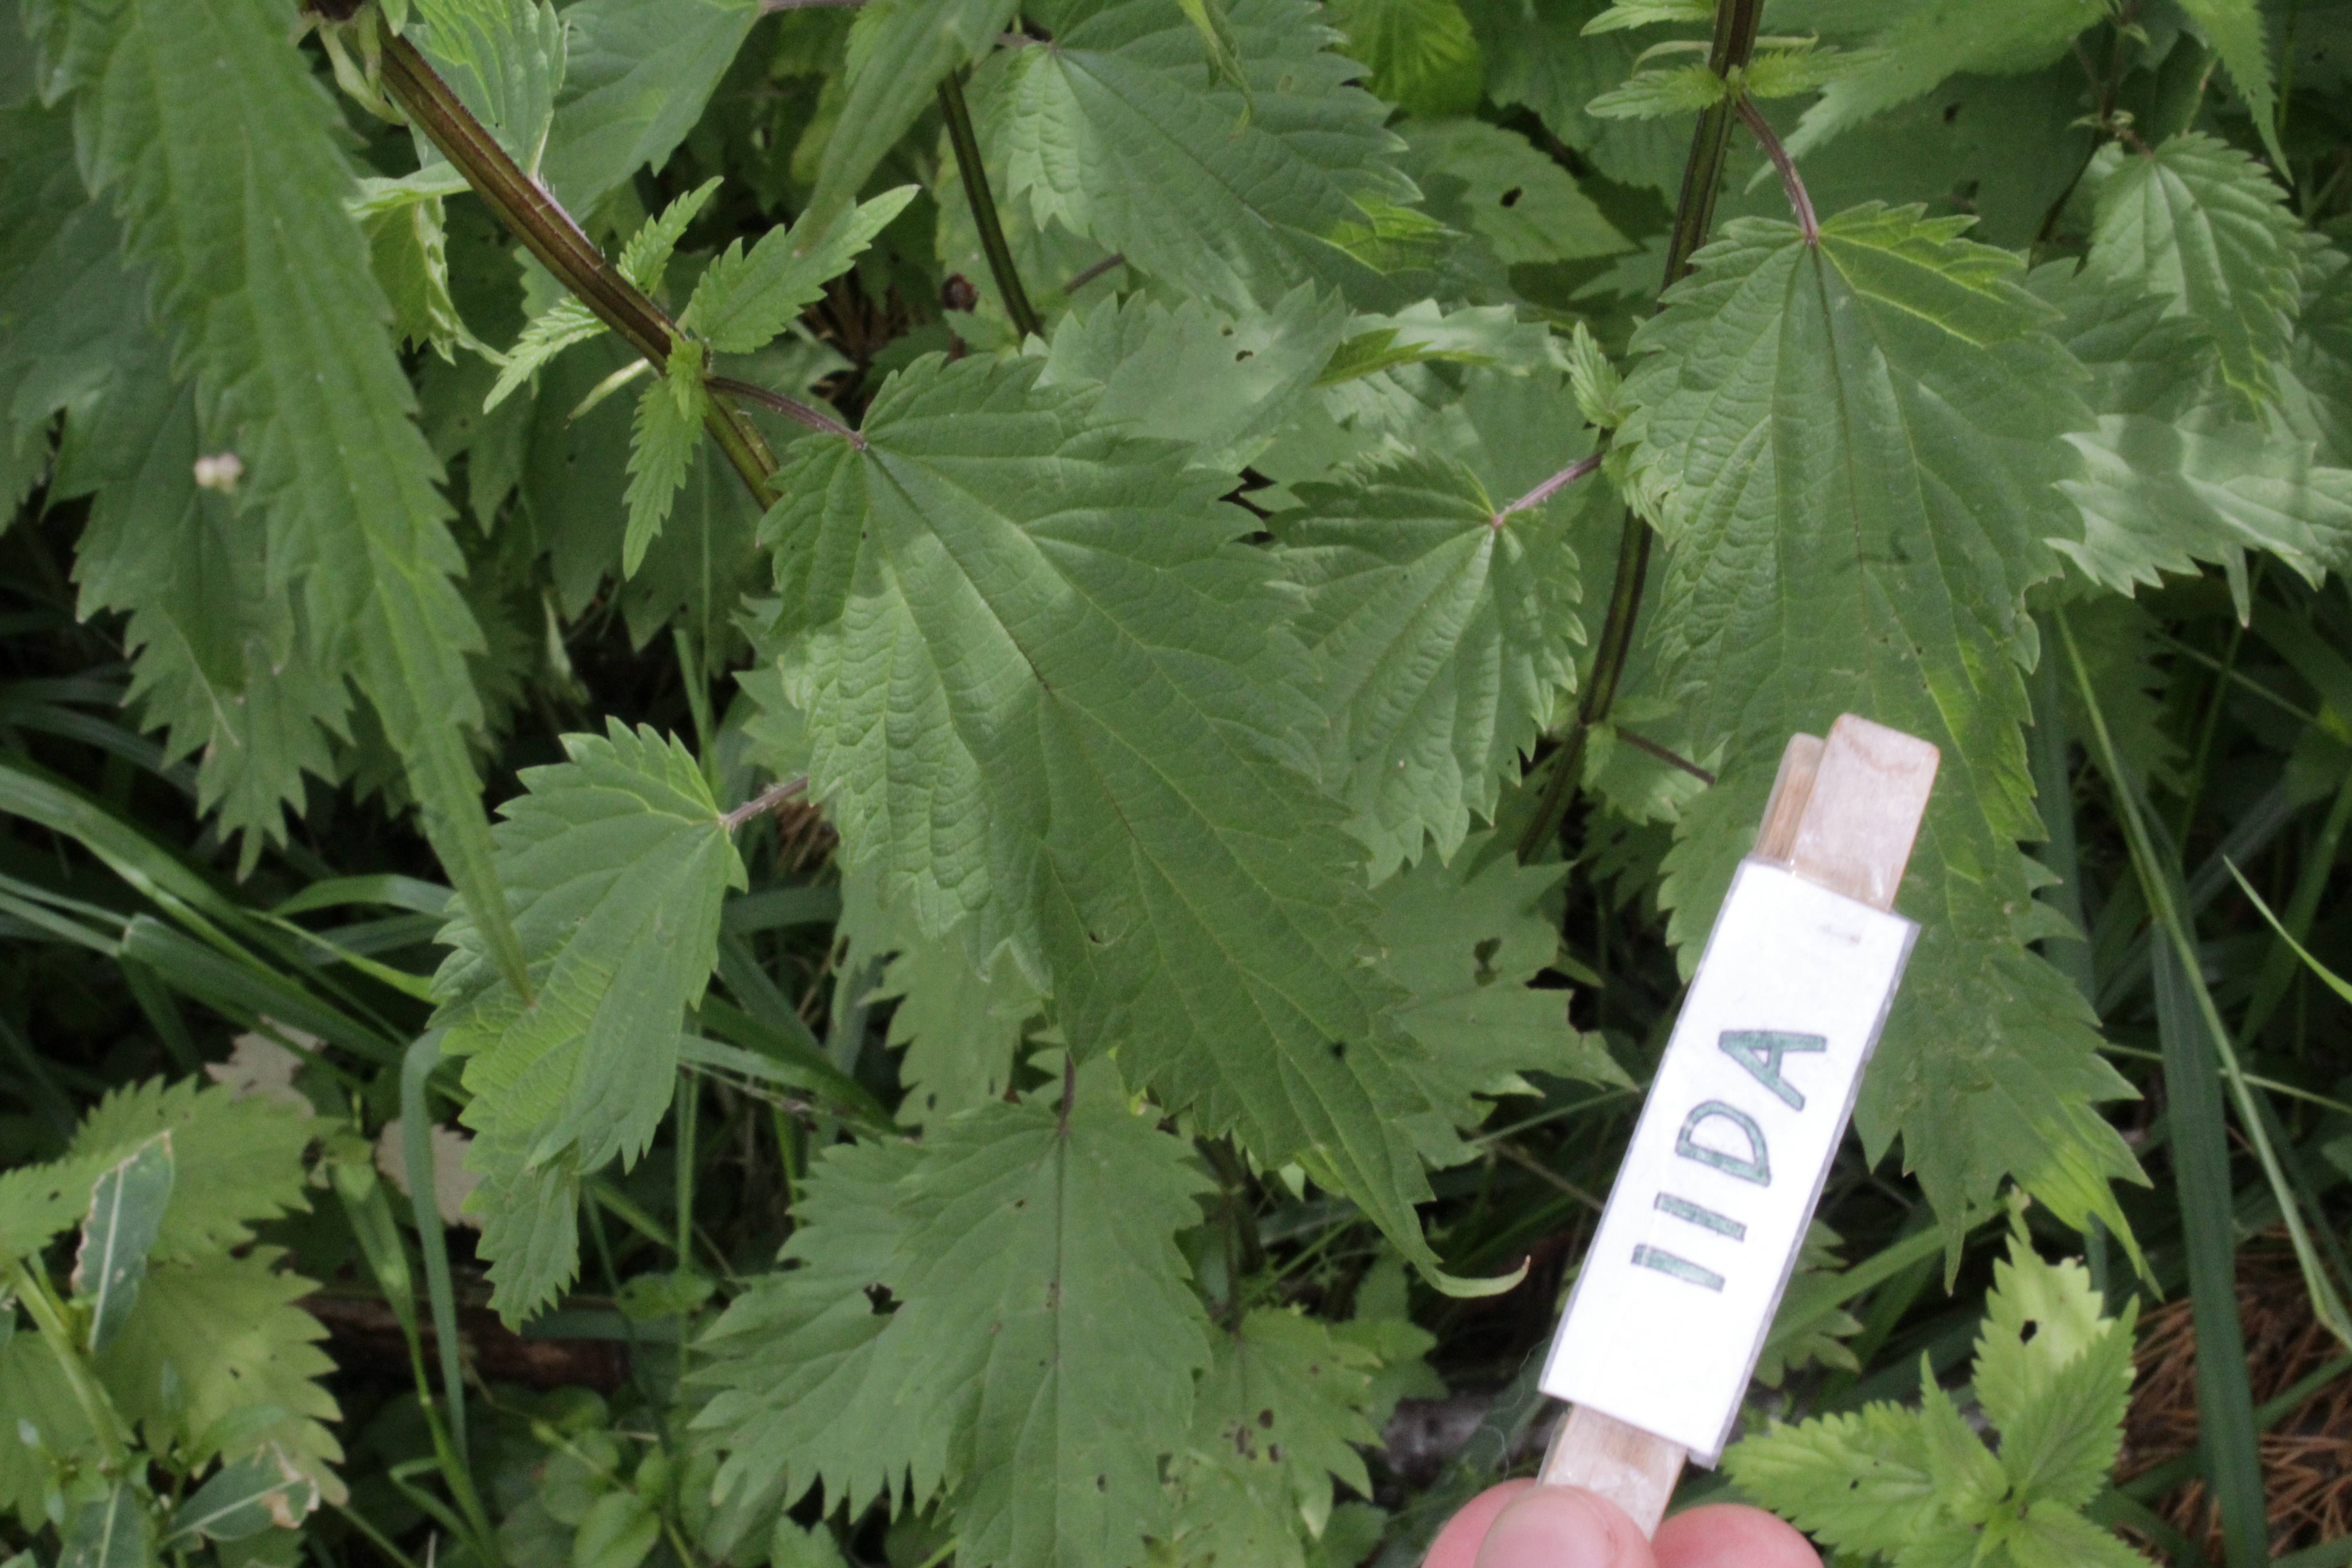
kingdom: Plantae
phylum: Tracheophyta
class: Magnoliopsida
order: Rosales
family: Urticaceae
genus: Urtica
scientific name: Urtica dioica
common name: Common nettle
